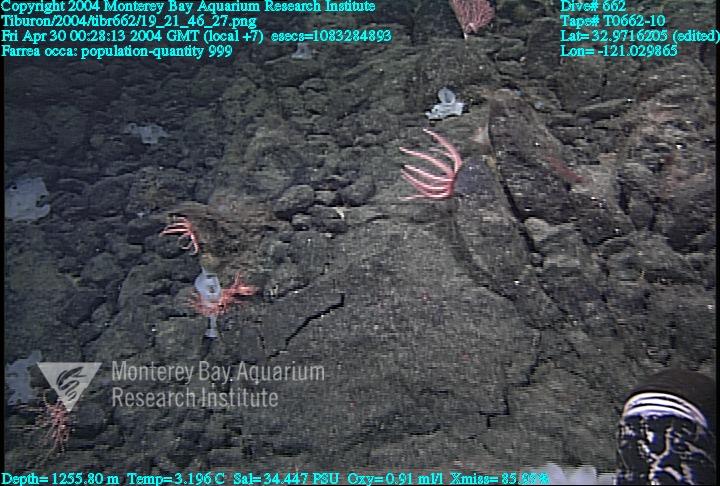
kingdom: Animalia
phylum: Porifera
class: Hexactinellida
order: Sceptrulophora
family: Farreidae
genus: Farrea
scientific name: Farrea occa
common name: Reversed glass sponge
